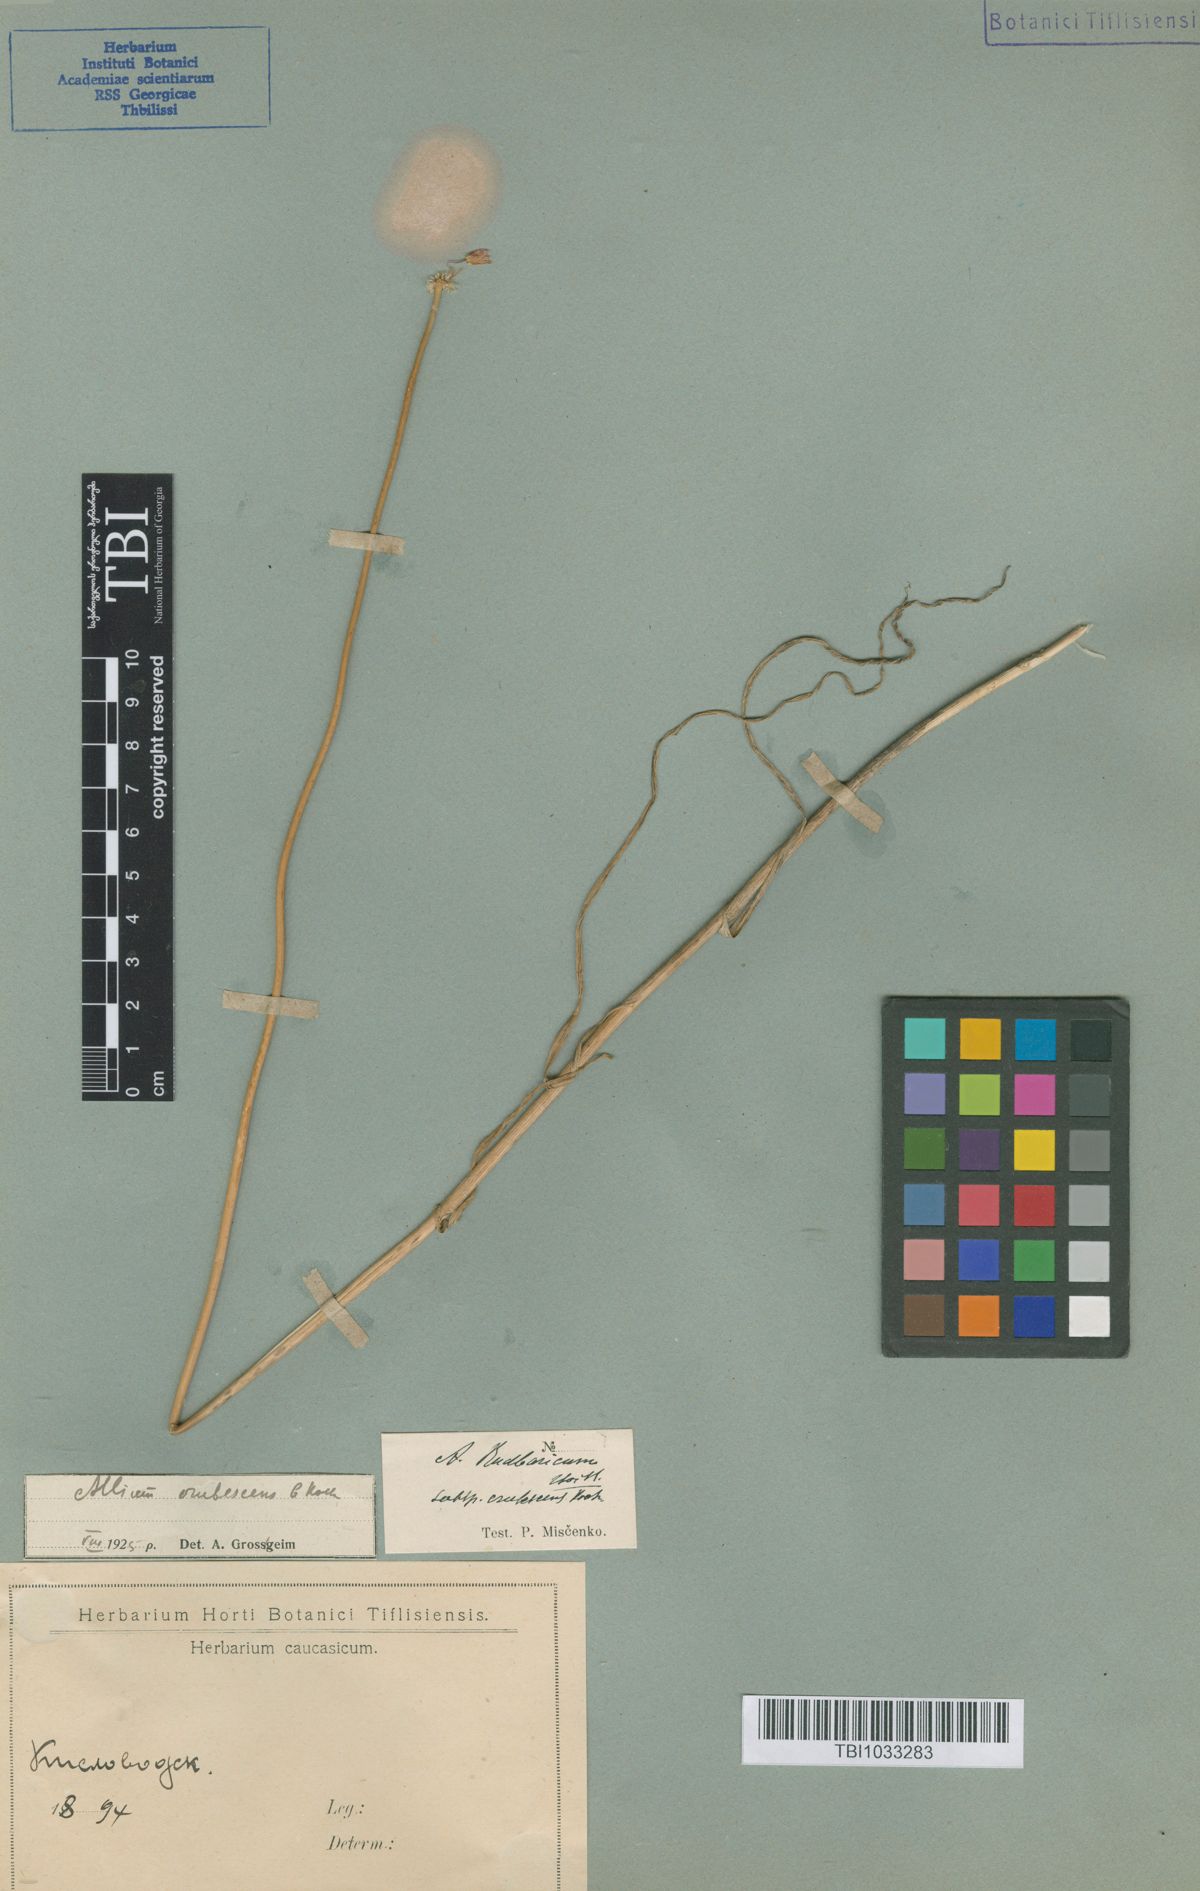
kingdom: Plantae
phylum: Tracheophyta
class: Liliopsida
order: Asparagales
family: Amaryllidaceae
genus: Allium
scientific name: Allium erubescens
